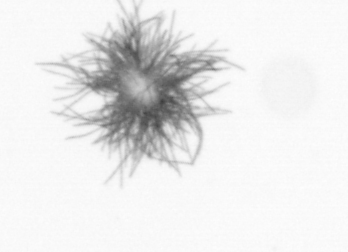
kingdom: Bacteria
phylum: Cyanobacteria
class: Cyanobacteriia
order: Cyanobacteriales
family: Microcoleaceae
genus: Trichodesmium
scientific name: Trichodesmium
